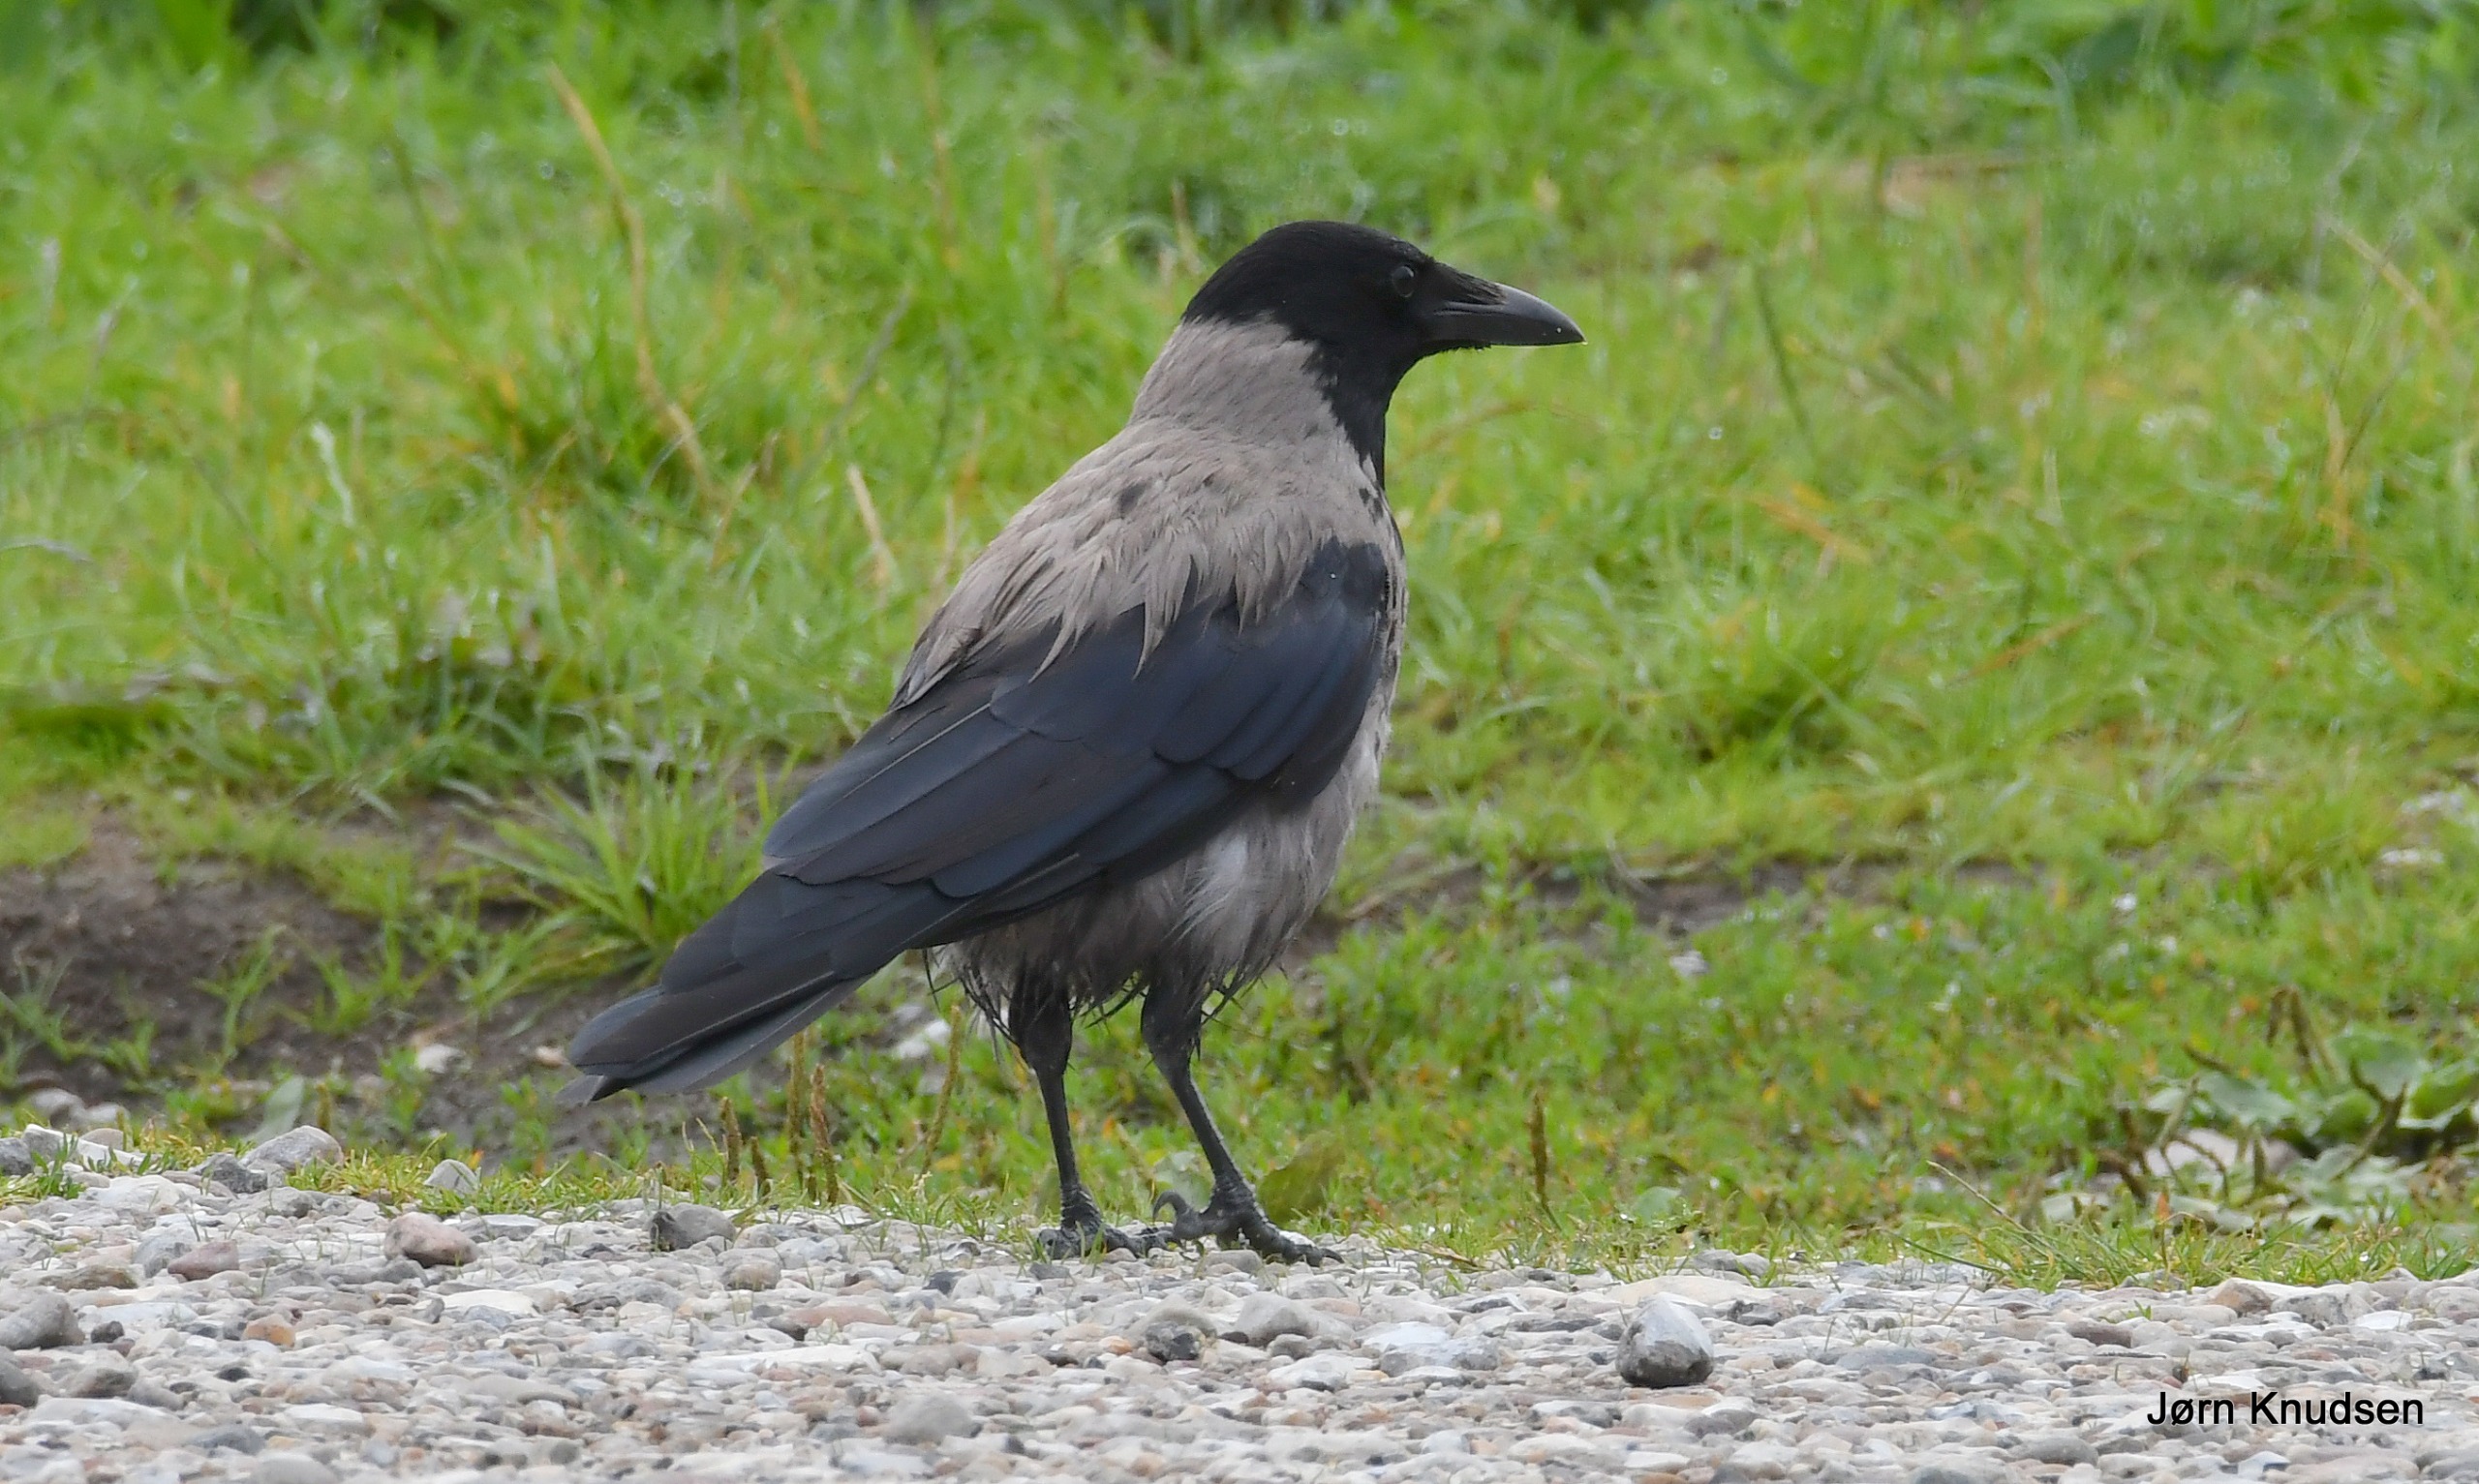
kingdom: Animalia
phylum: Chordata
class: Aves
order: Passeriformes
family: Corvidae
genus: Corvus
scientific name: Corvus cornix
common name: Gråkrage
